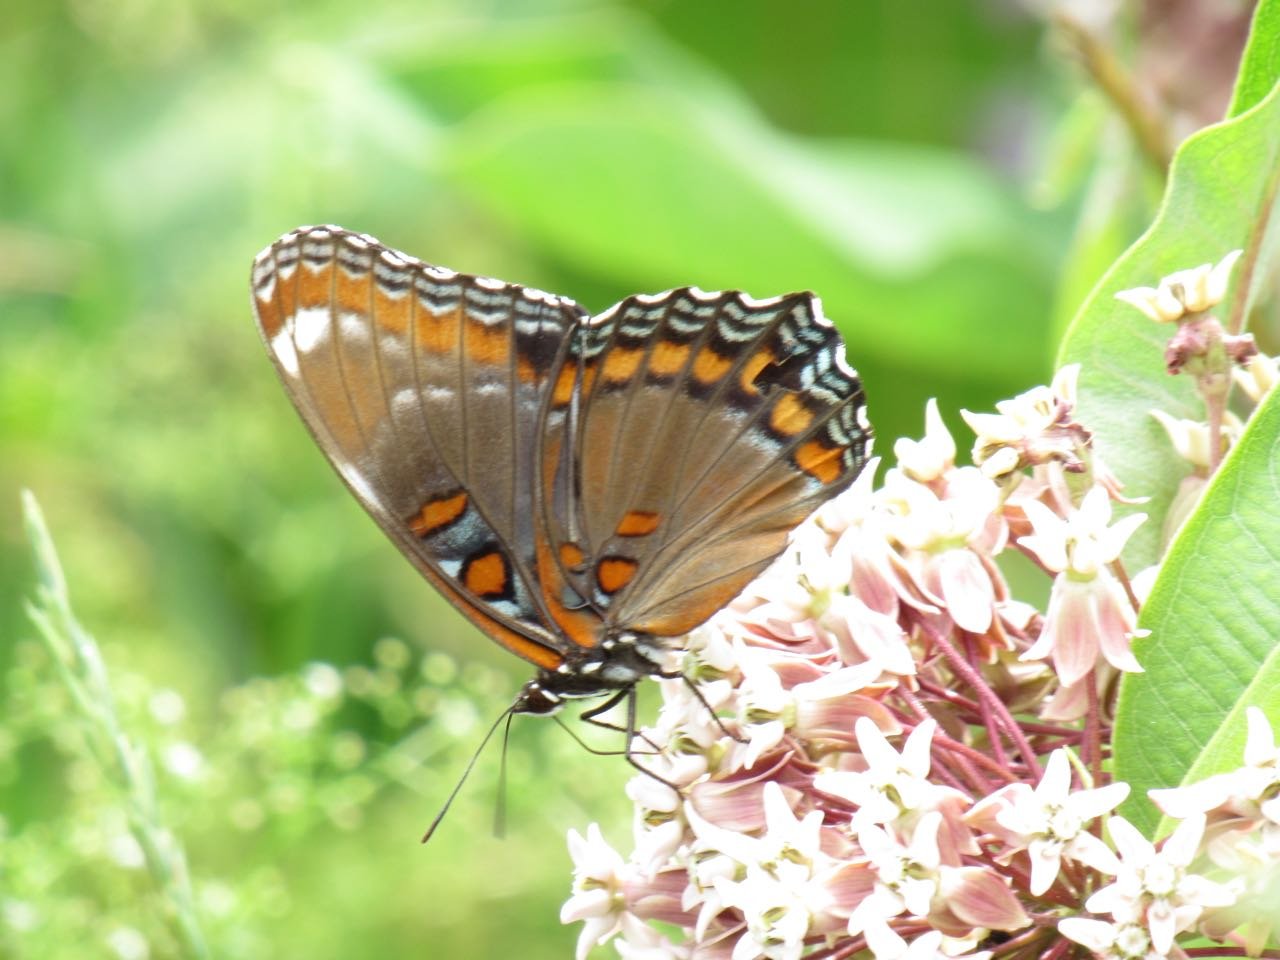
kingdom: Animalia
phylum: Arthropoda
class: Insecta
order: Lepidoptera
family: Nymphalidae
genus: Limenitis
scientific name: Limenitis
